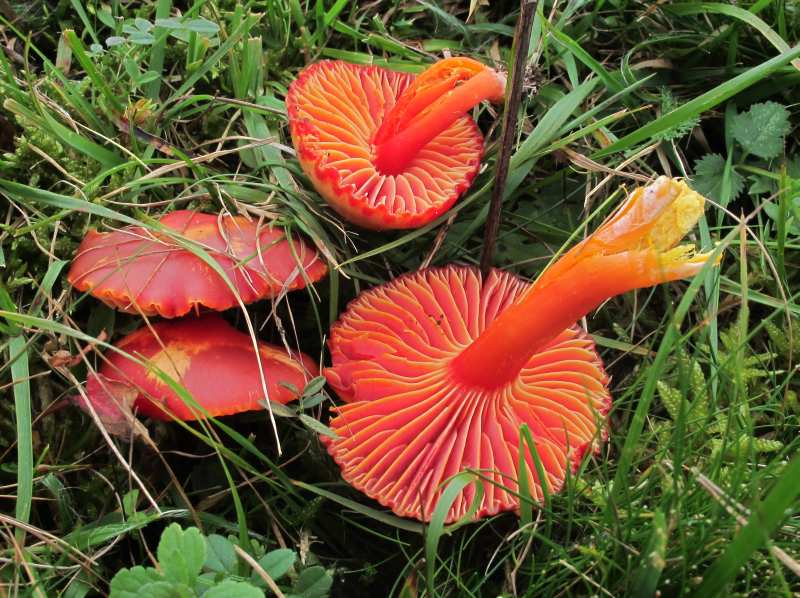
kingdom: Fungi
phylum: Basidiomycota
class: Agaricomycetes
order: Agaricales
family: Hygrophoraceae
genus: Hygrocybe
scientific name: Hygrocybe coccinea
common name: cinnober-vokshat
